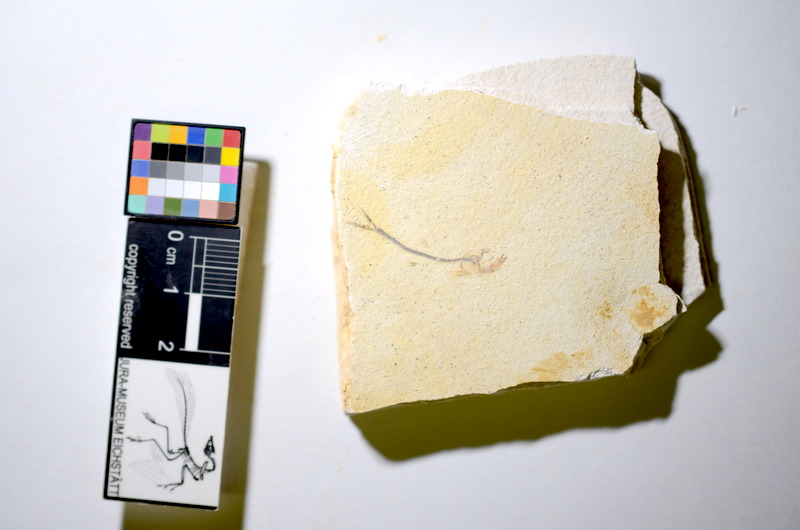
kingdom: Animalia
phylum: Chordata
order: Salmoniformes
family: Orthogonikleithridae
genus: Orthogonikleithrus
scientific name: Orthogonikleithrus hoelli
